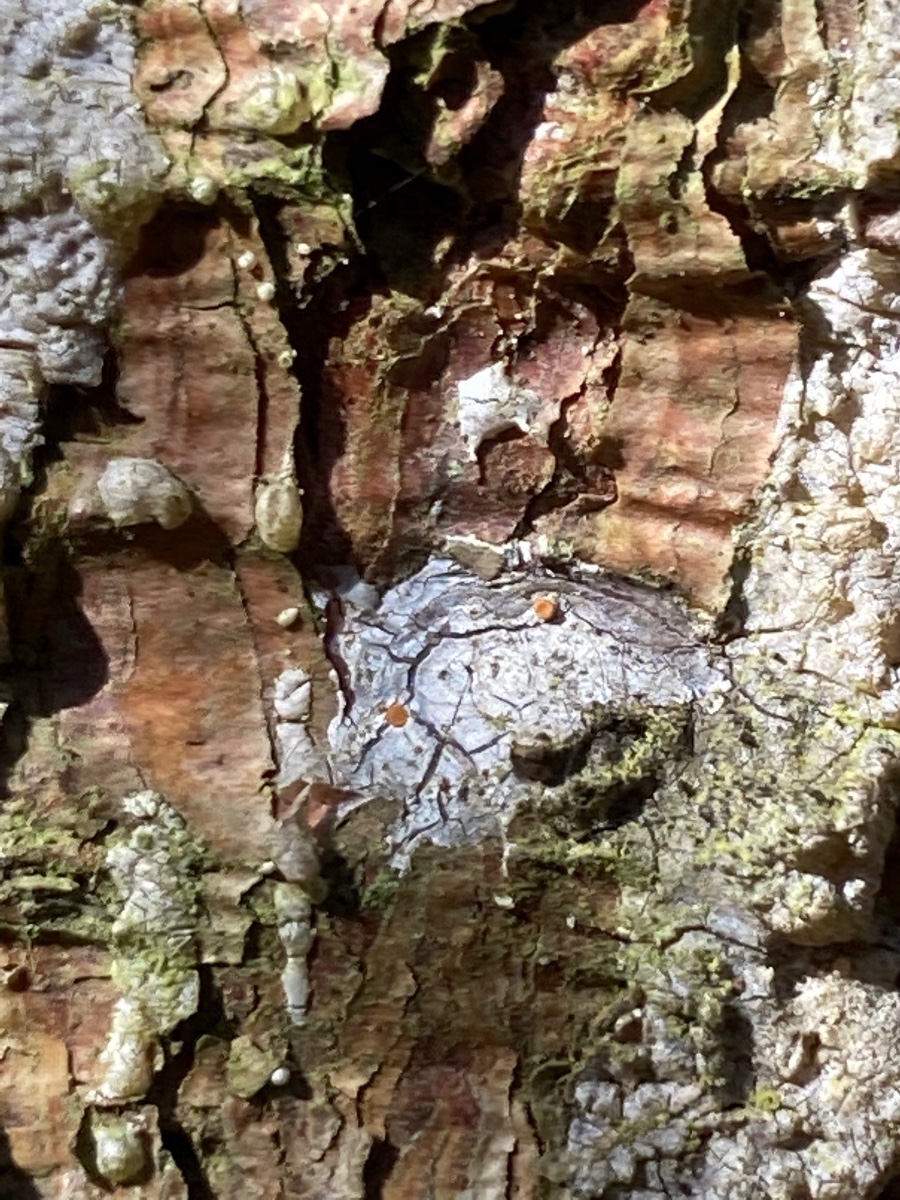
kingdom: Fungi
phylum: Ascomycota
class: Sareomycetes
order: Sareales
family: Sareaceae
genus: Sarea
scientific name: Sarea resinae
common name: orangegul harpiksskive
